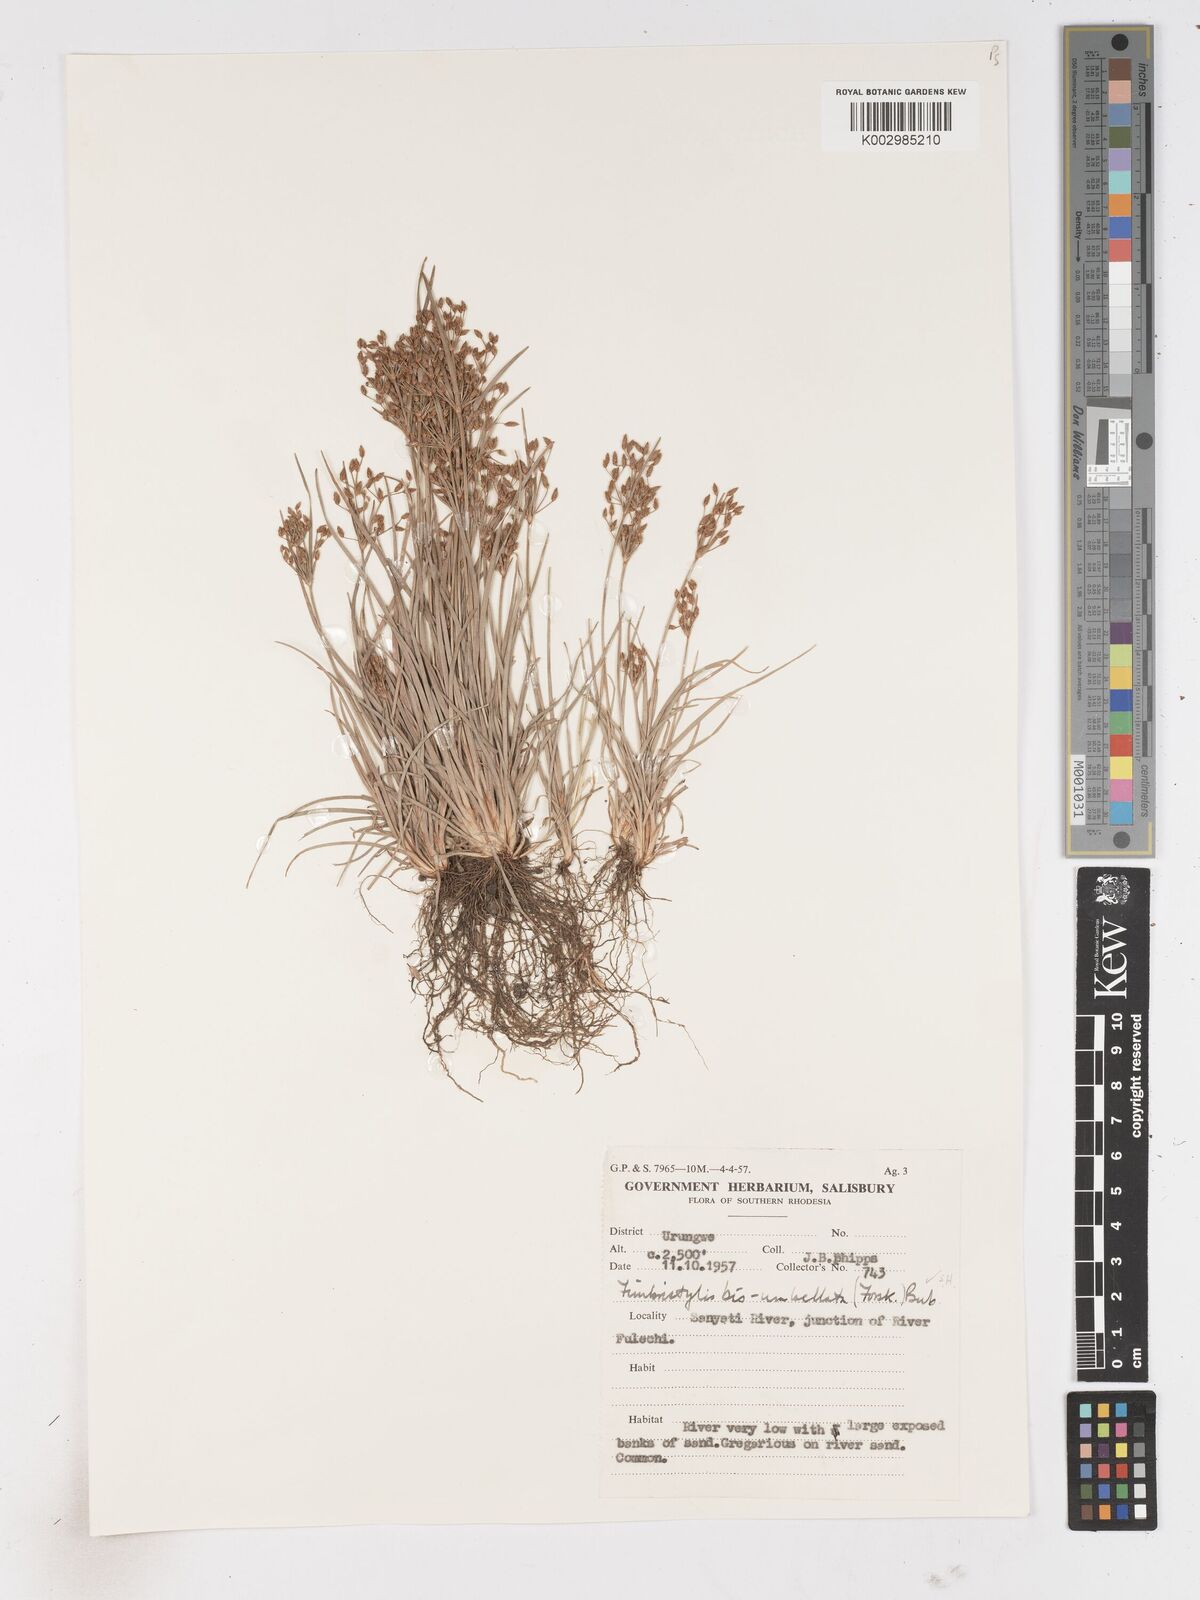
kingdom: Plantae
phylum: Tracheophyta
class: Liliopsida
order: Poales
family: Cyperaceae
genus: Fimbristylis
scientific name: Fimbristylis bisumbellata
